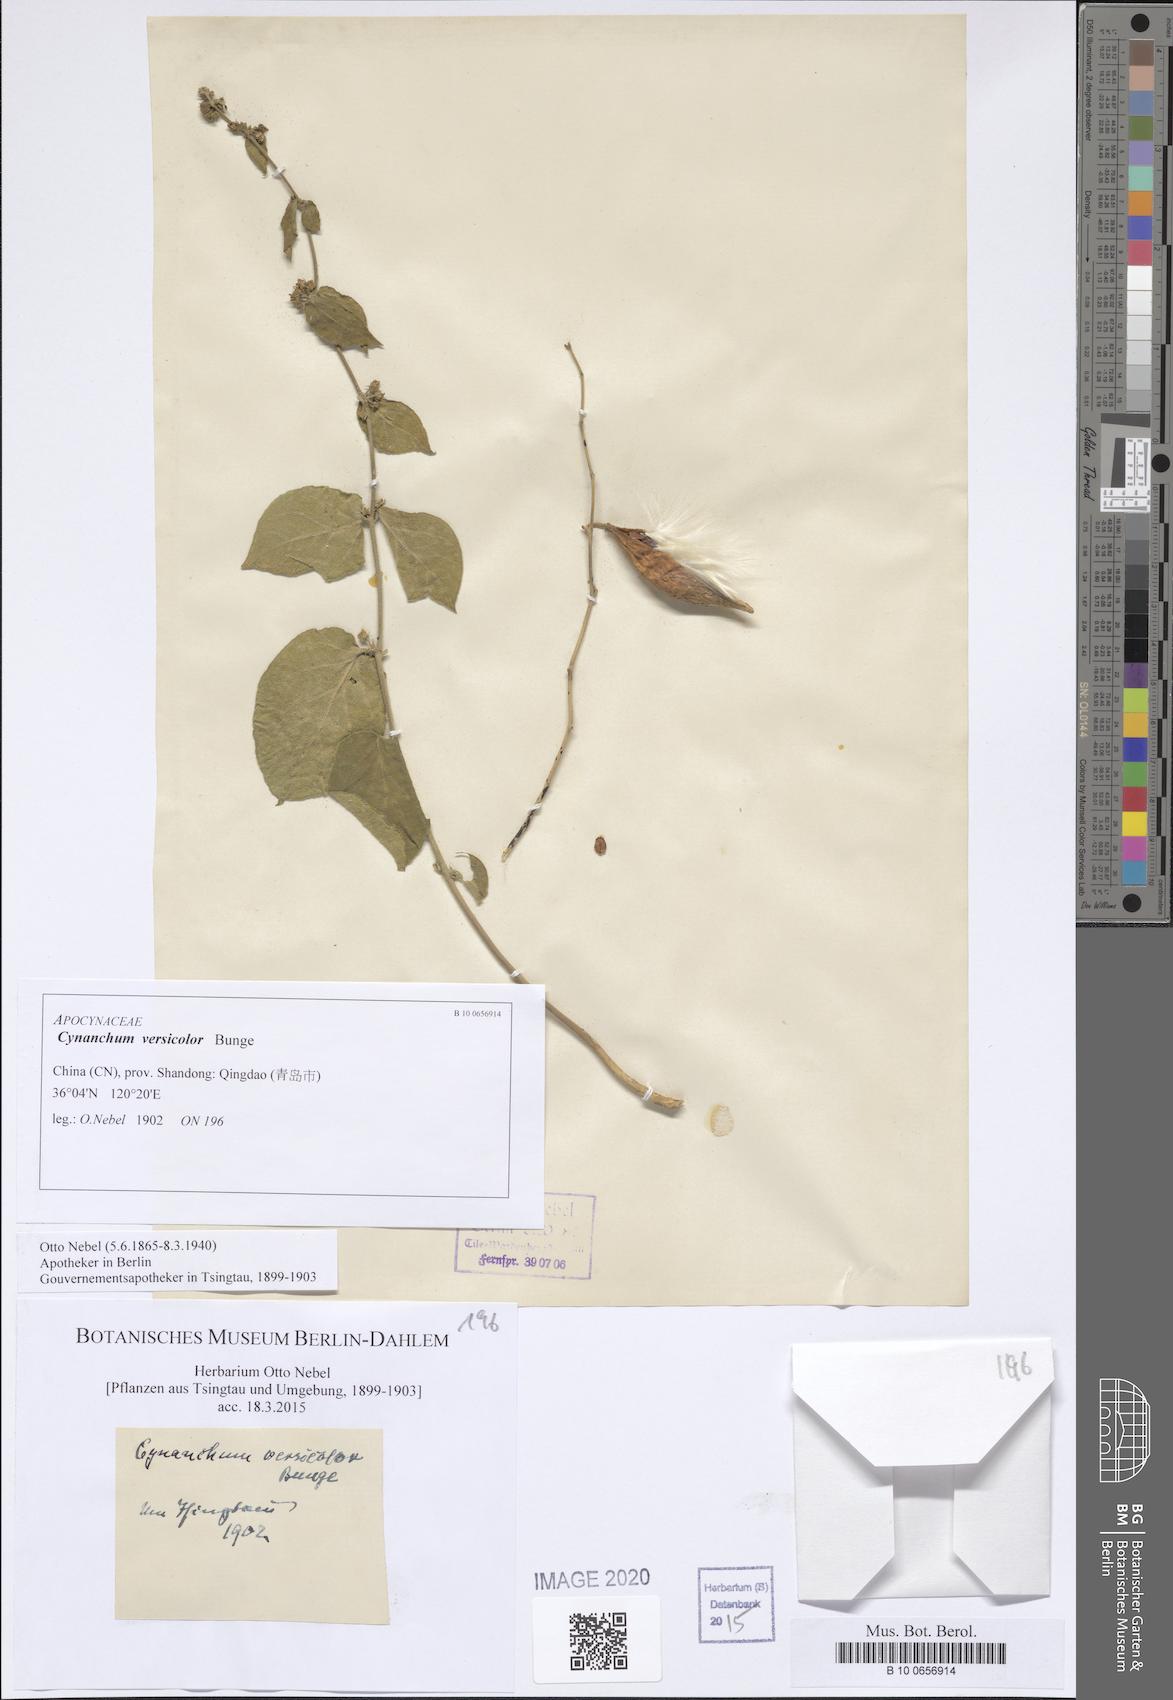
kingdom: Plantae
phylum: Tracheophyta
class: Magnoliopsida
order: Gentianales
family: Apocynaceae
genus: Vincetoxicum
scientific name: Vincetoxicum versicolor
